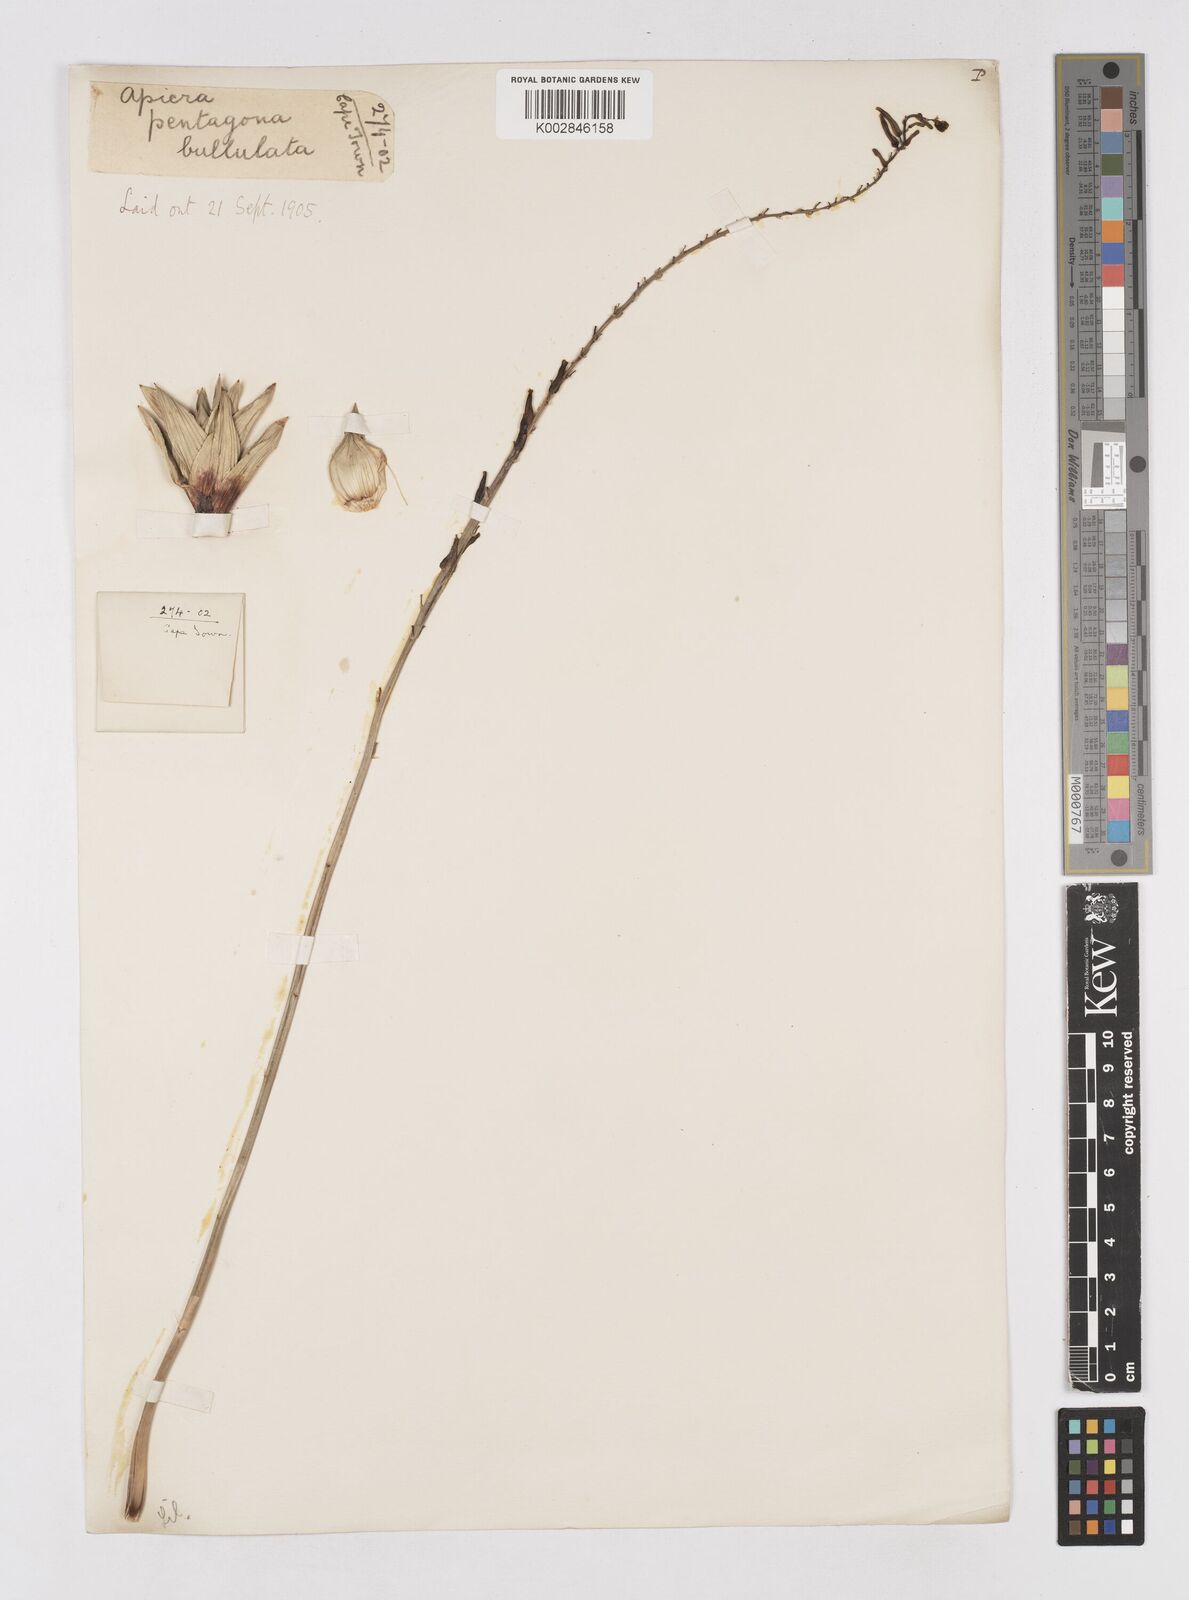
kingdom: Plantae
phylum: Tracheophyta
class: Liliopsida
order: Asparagales
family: Asphodelaceae
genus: Astroloba
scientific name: Astroloba pentagona
